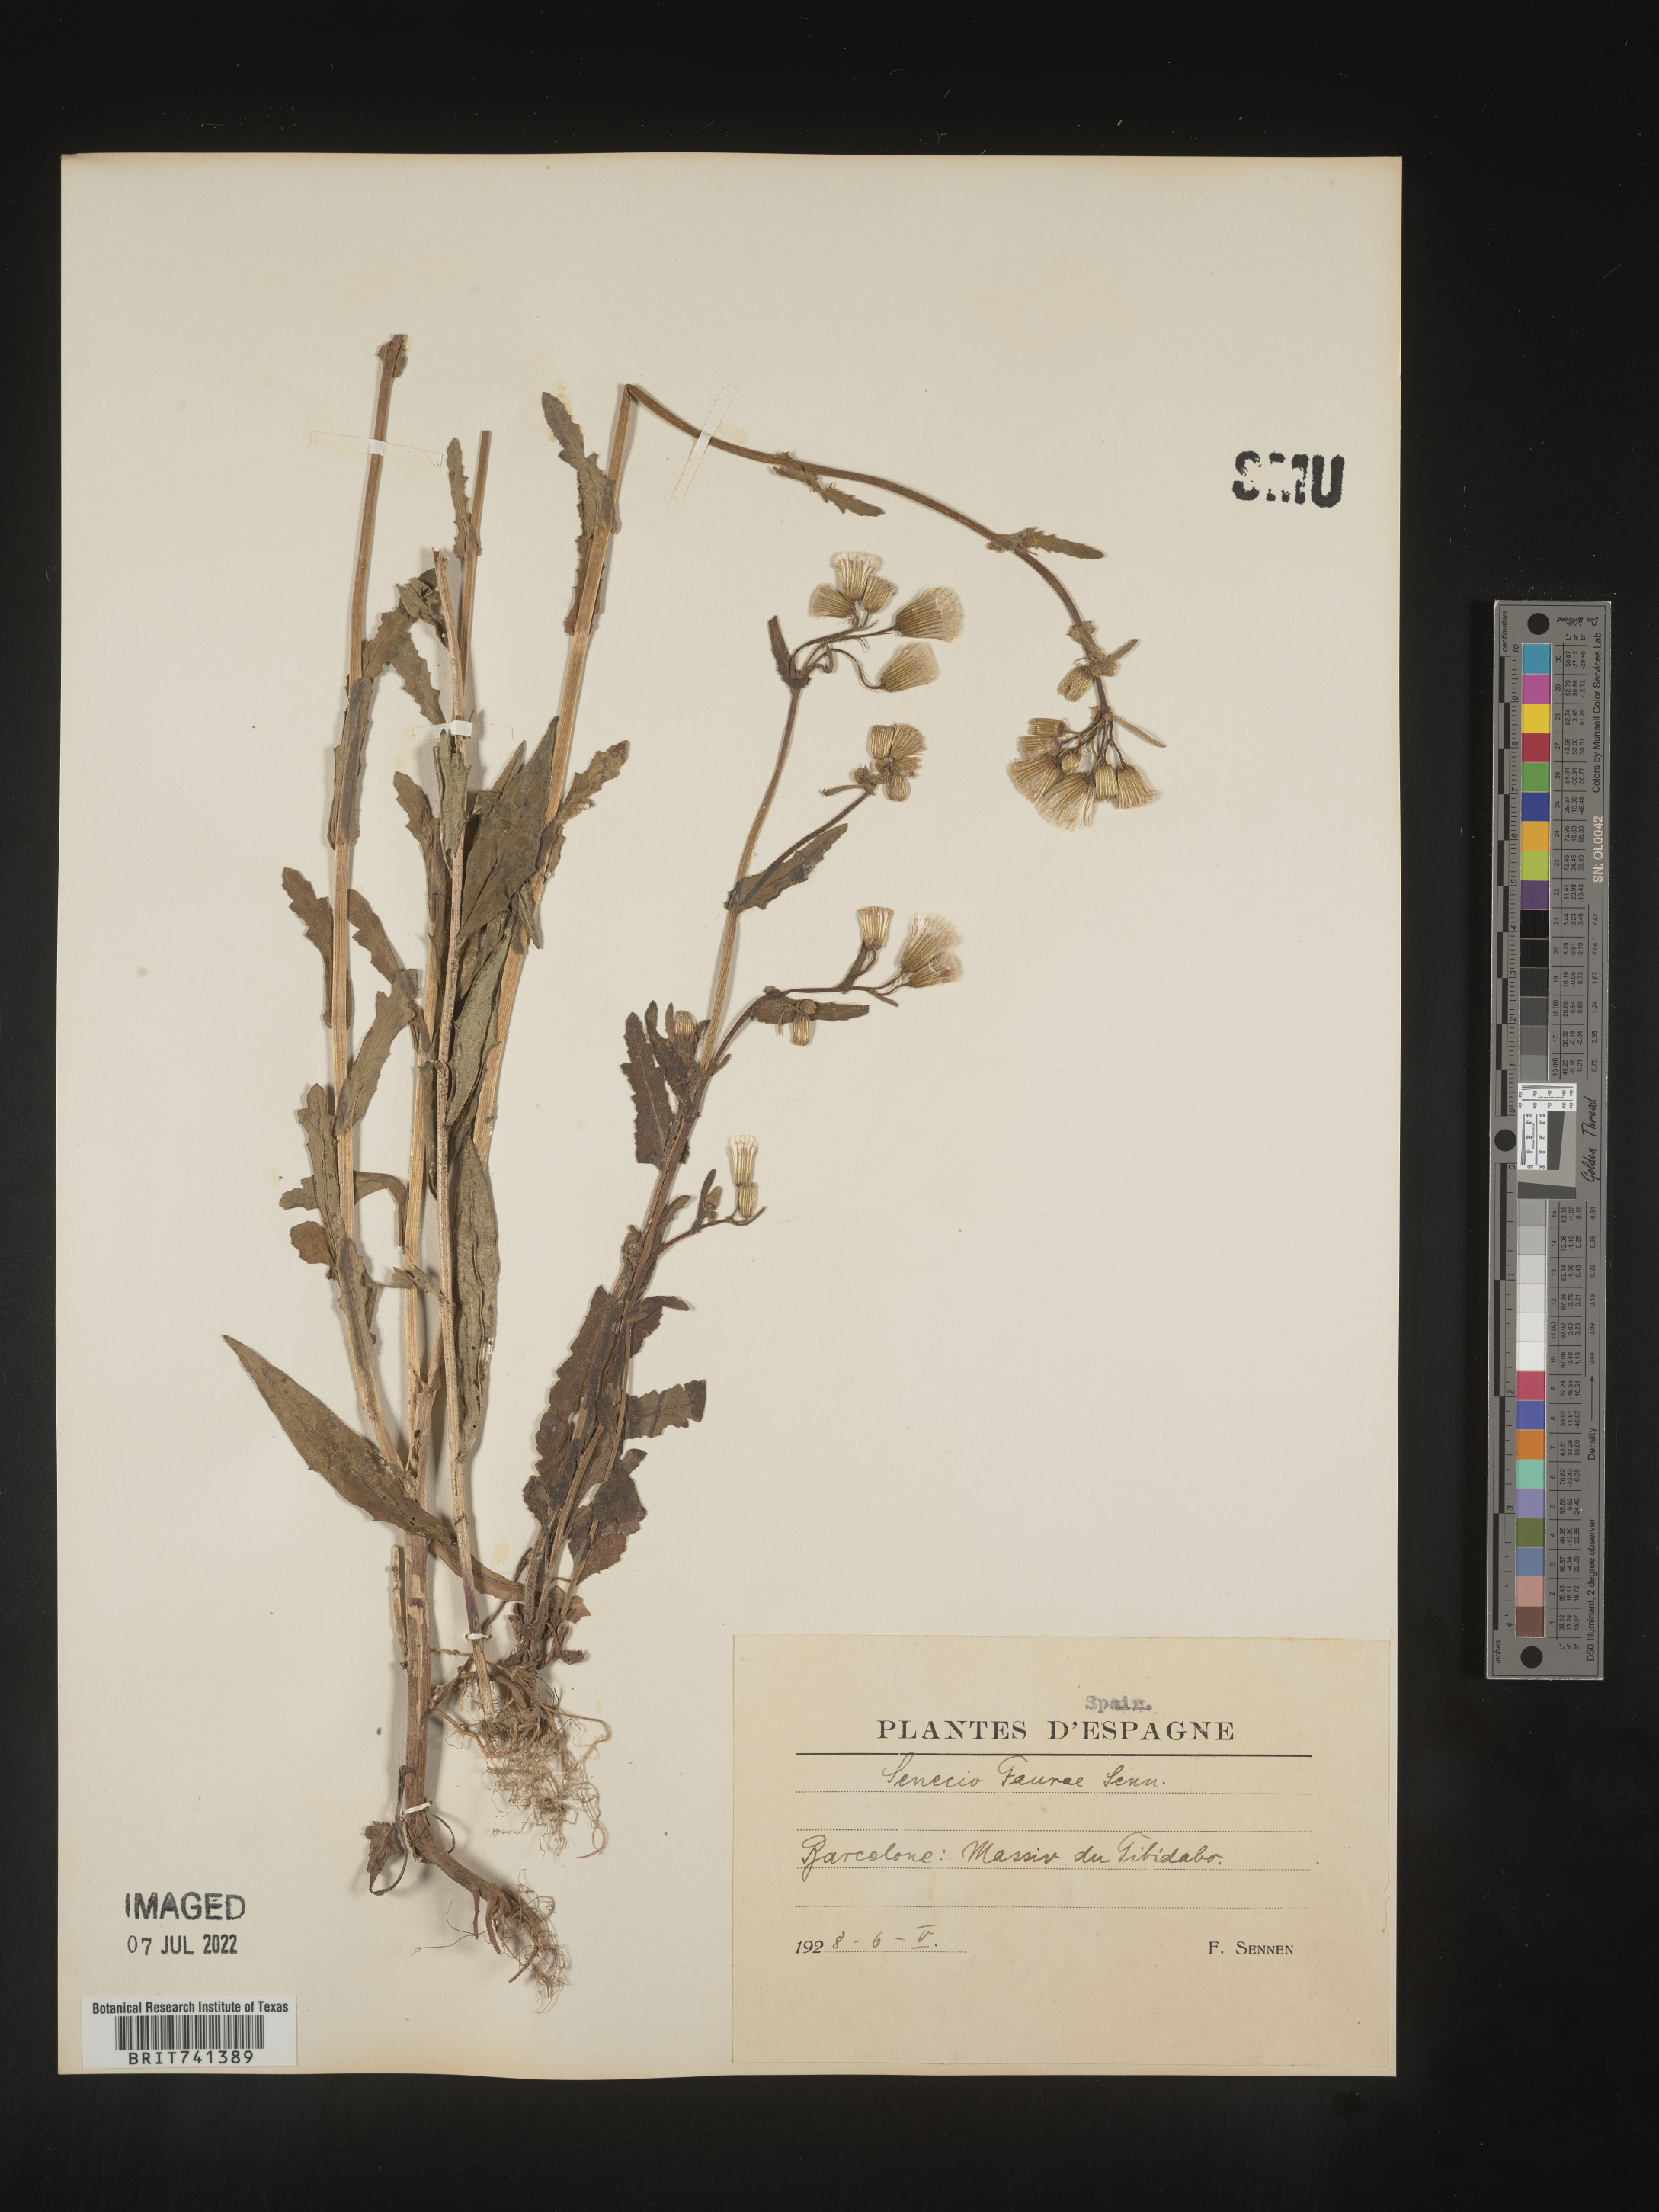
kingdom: Plantae
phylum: Tracheophyta
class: Magnoliopsida
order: Asterales
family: Asteraceae
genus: Senecio
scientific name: Senecio
